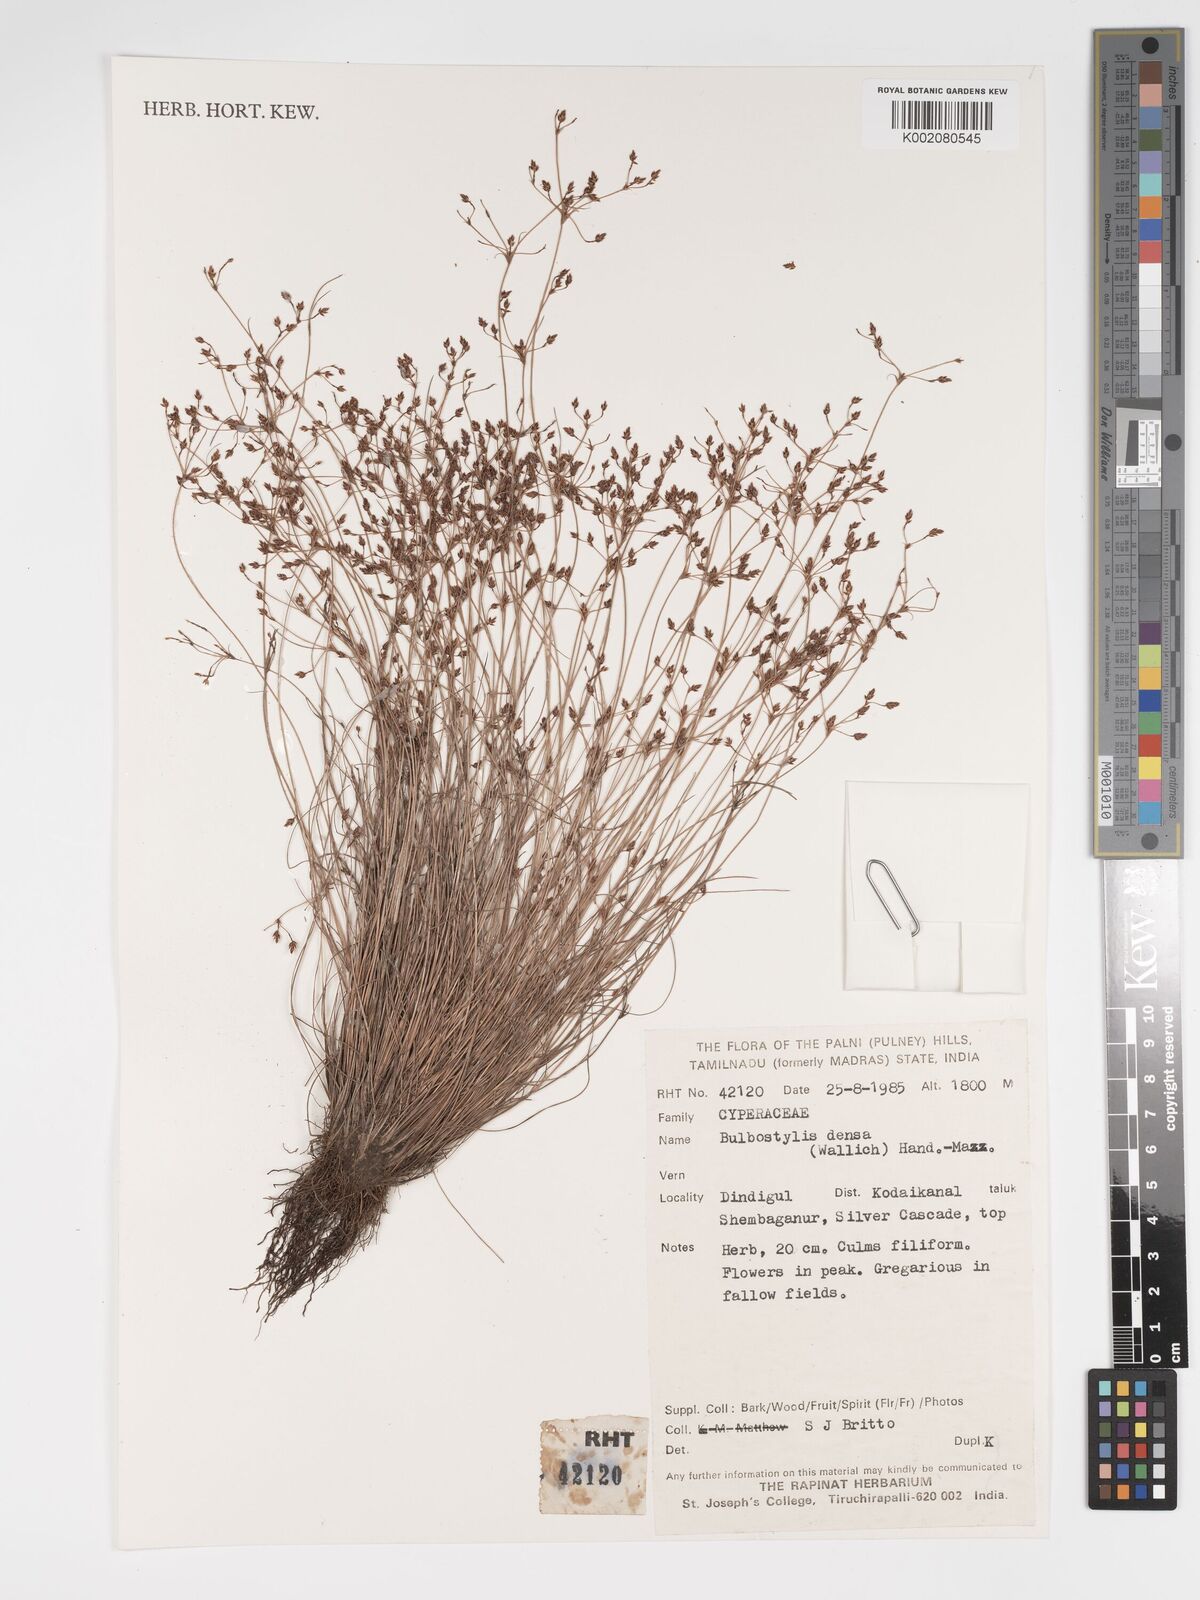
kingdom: Plantae
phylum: Tracheophyta
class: Liliopsida
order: Poales
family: Cyperaceae
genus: Bulbostylis
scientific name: Bulbostylis densa
